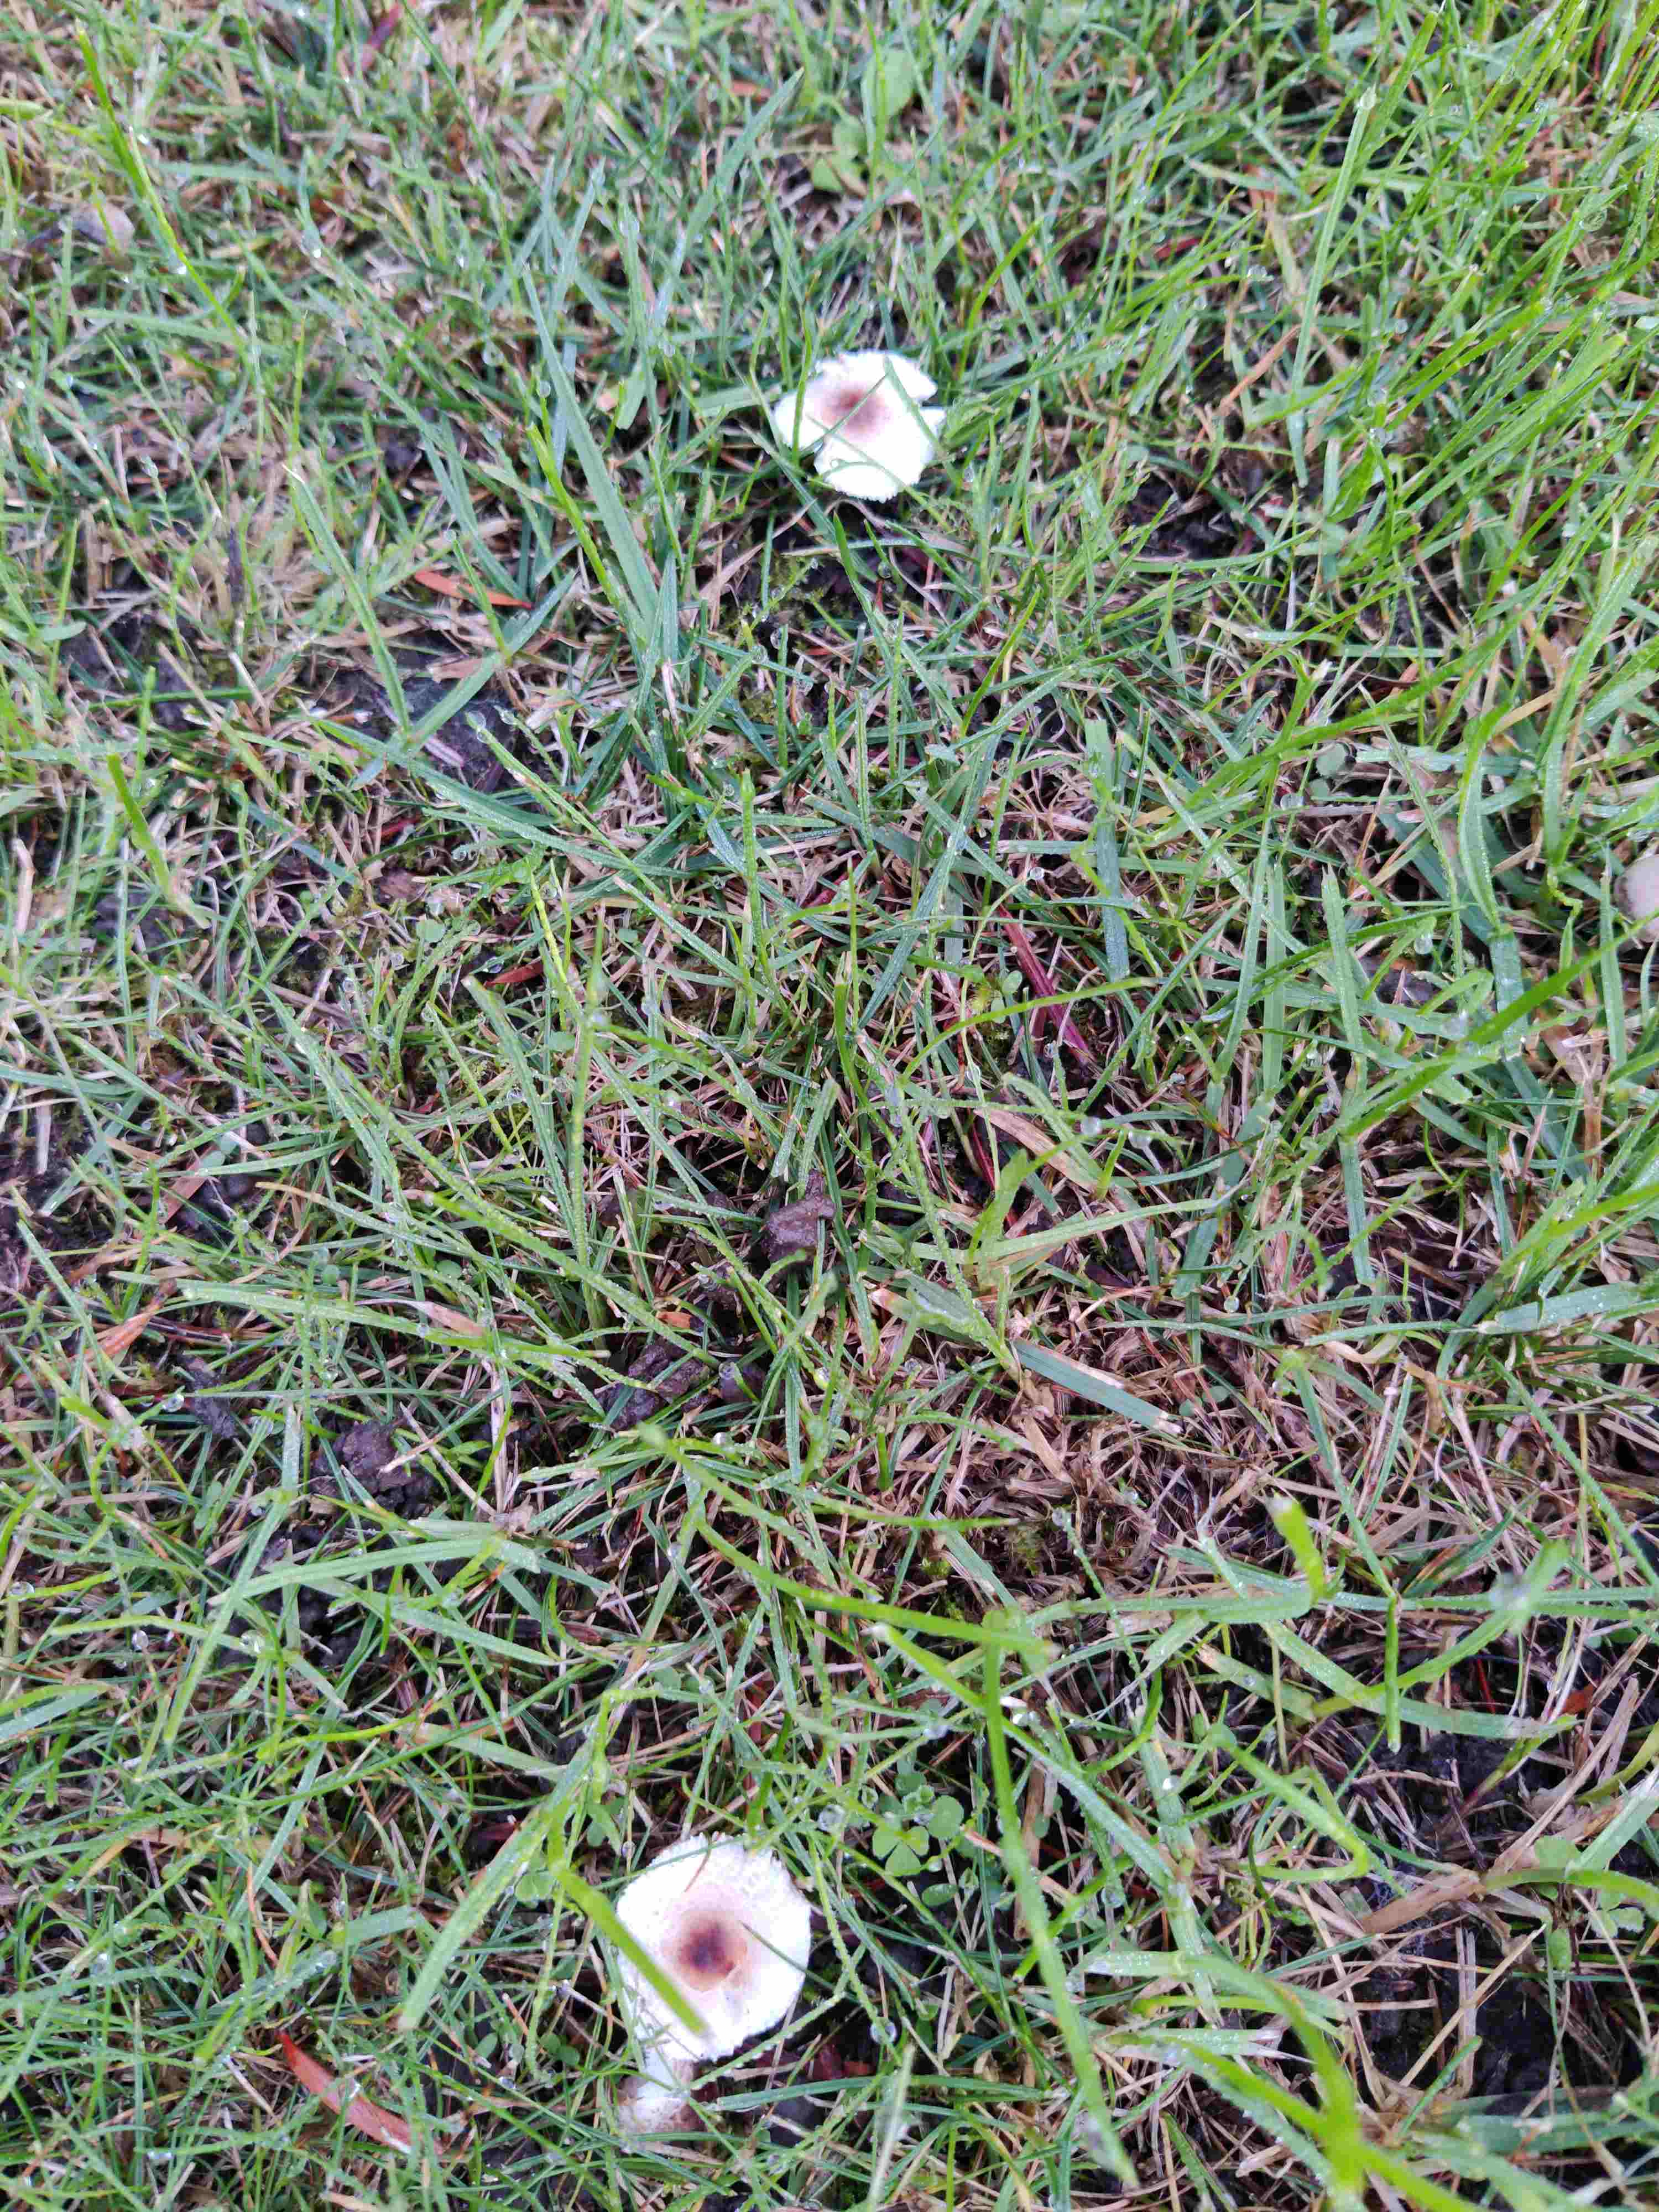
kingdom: Fungi
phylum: Basidiomycota
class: Agaricomycetes
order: Agaricales
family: Agaricaceae
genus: Lepiota
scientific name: Lepiota
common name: parasolhat
